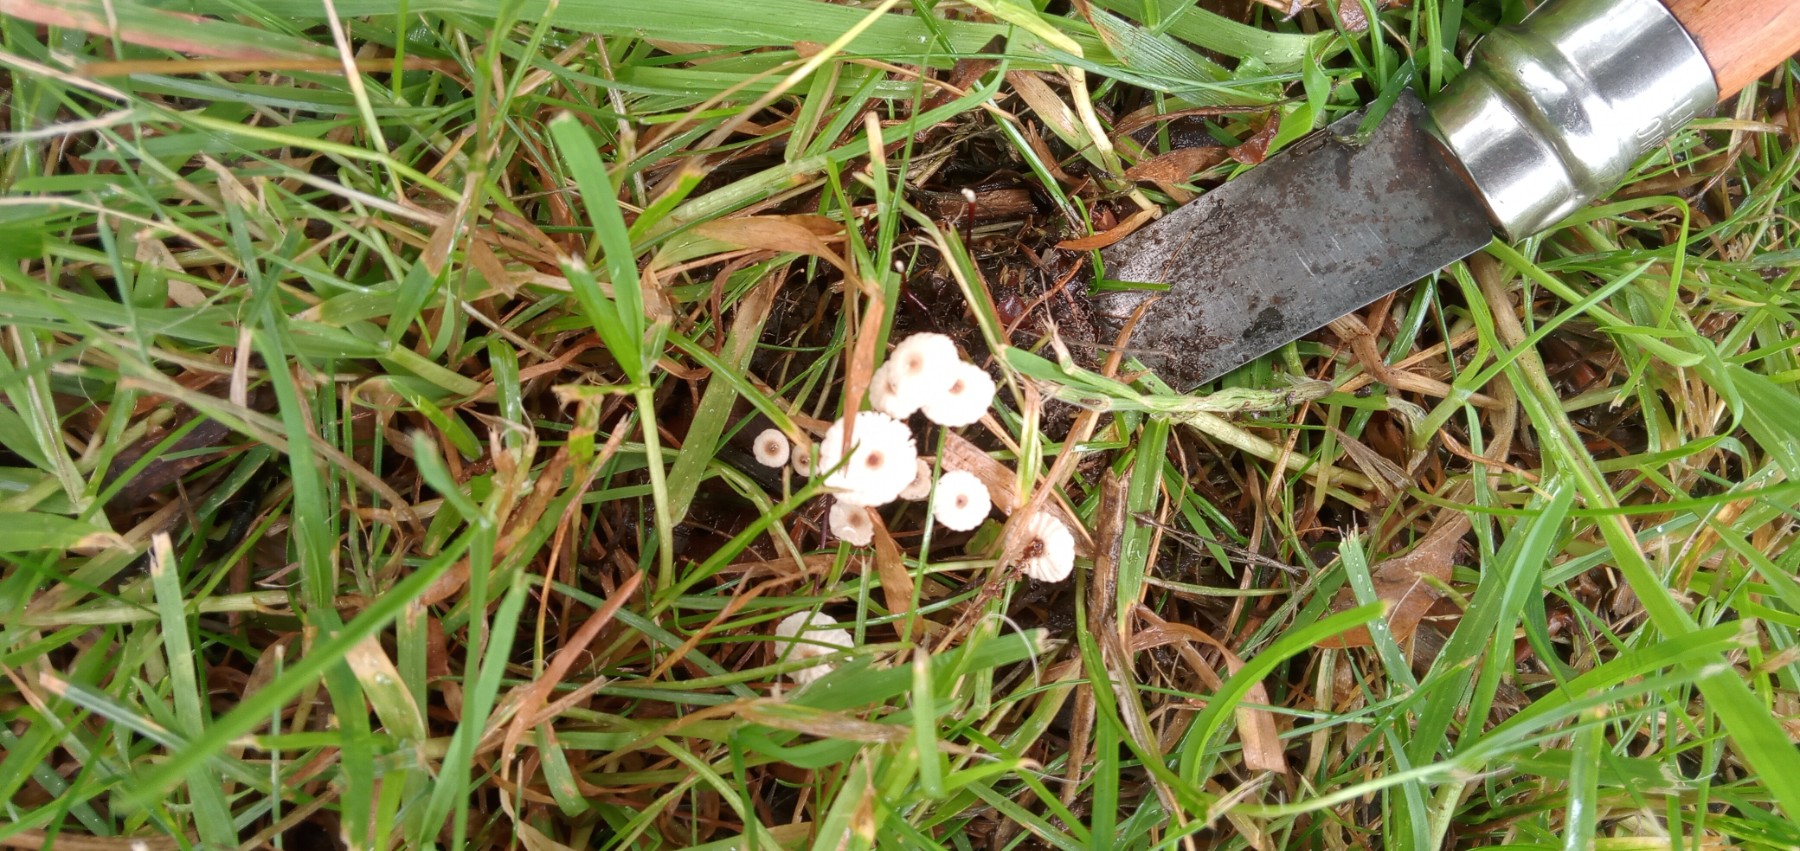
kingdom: Fungi
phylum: Basidiomycota
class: Agaricomycetes
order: Agaricales
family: Marasmiaceae
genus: Marasmius
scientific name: Marasmius rotula
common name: hjul-bruskhat
